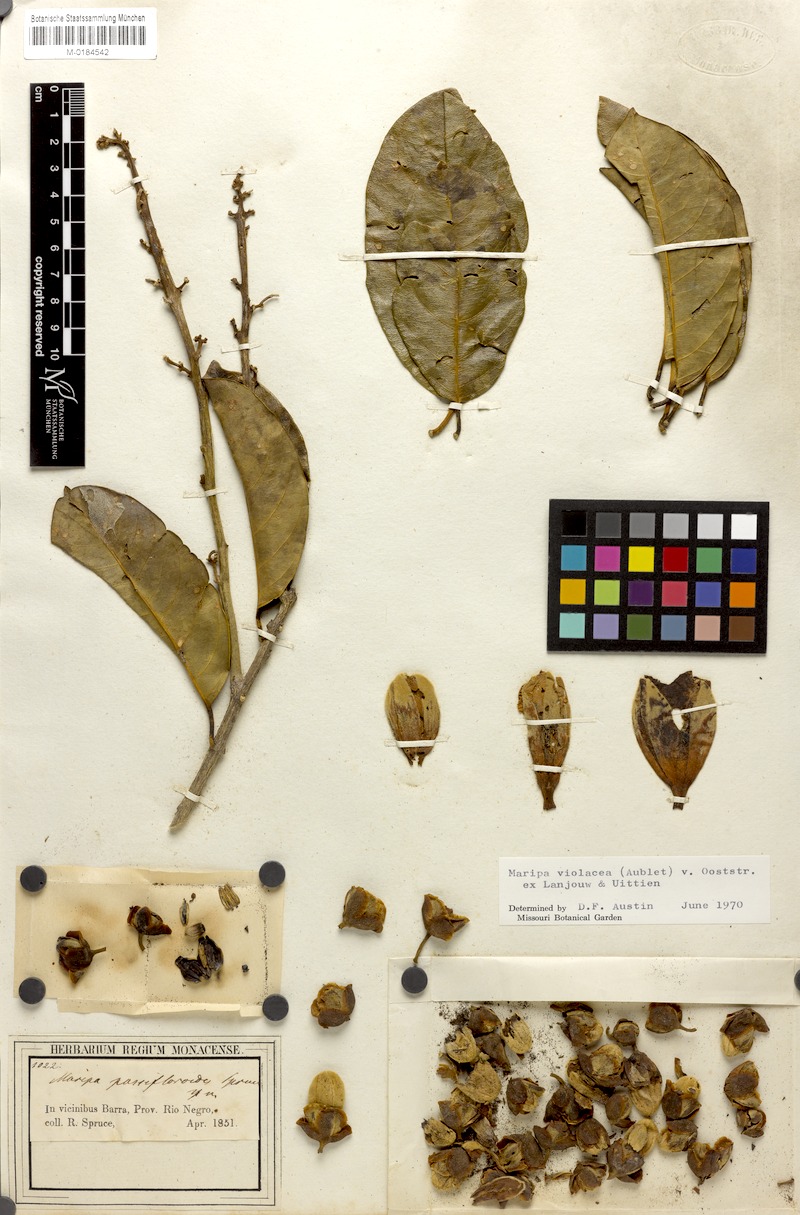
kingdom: Plantae
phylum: Tracheophyta
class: Magnoliopsida
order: Solanales
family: Convolvulaceae
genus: Maripa
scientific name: Maripa violacea
